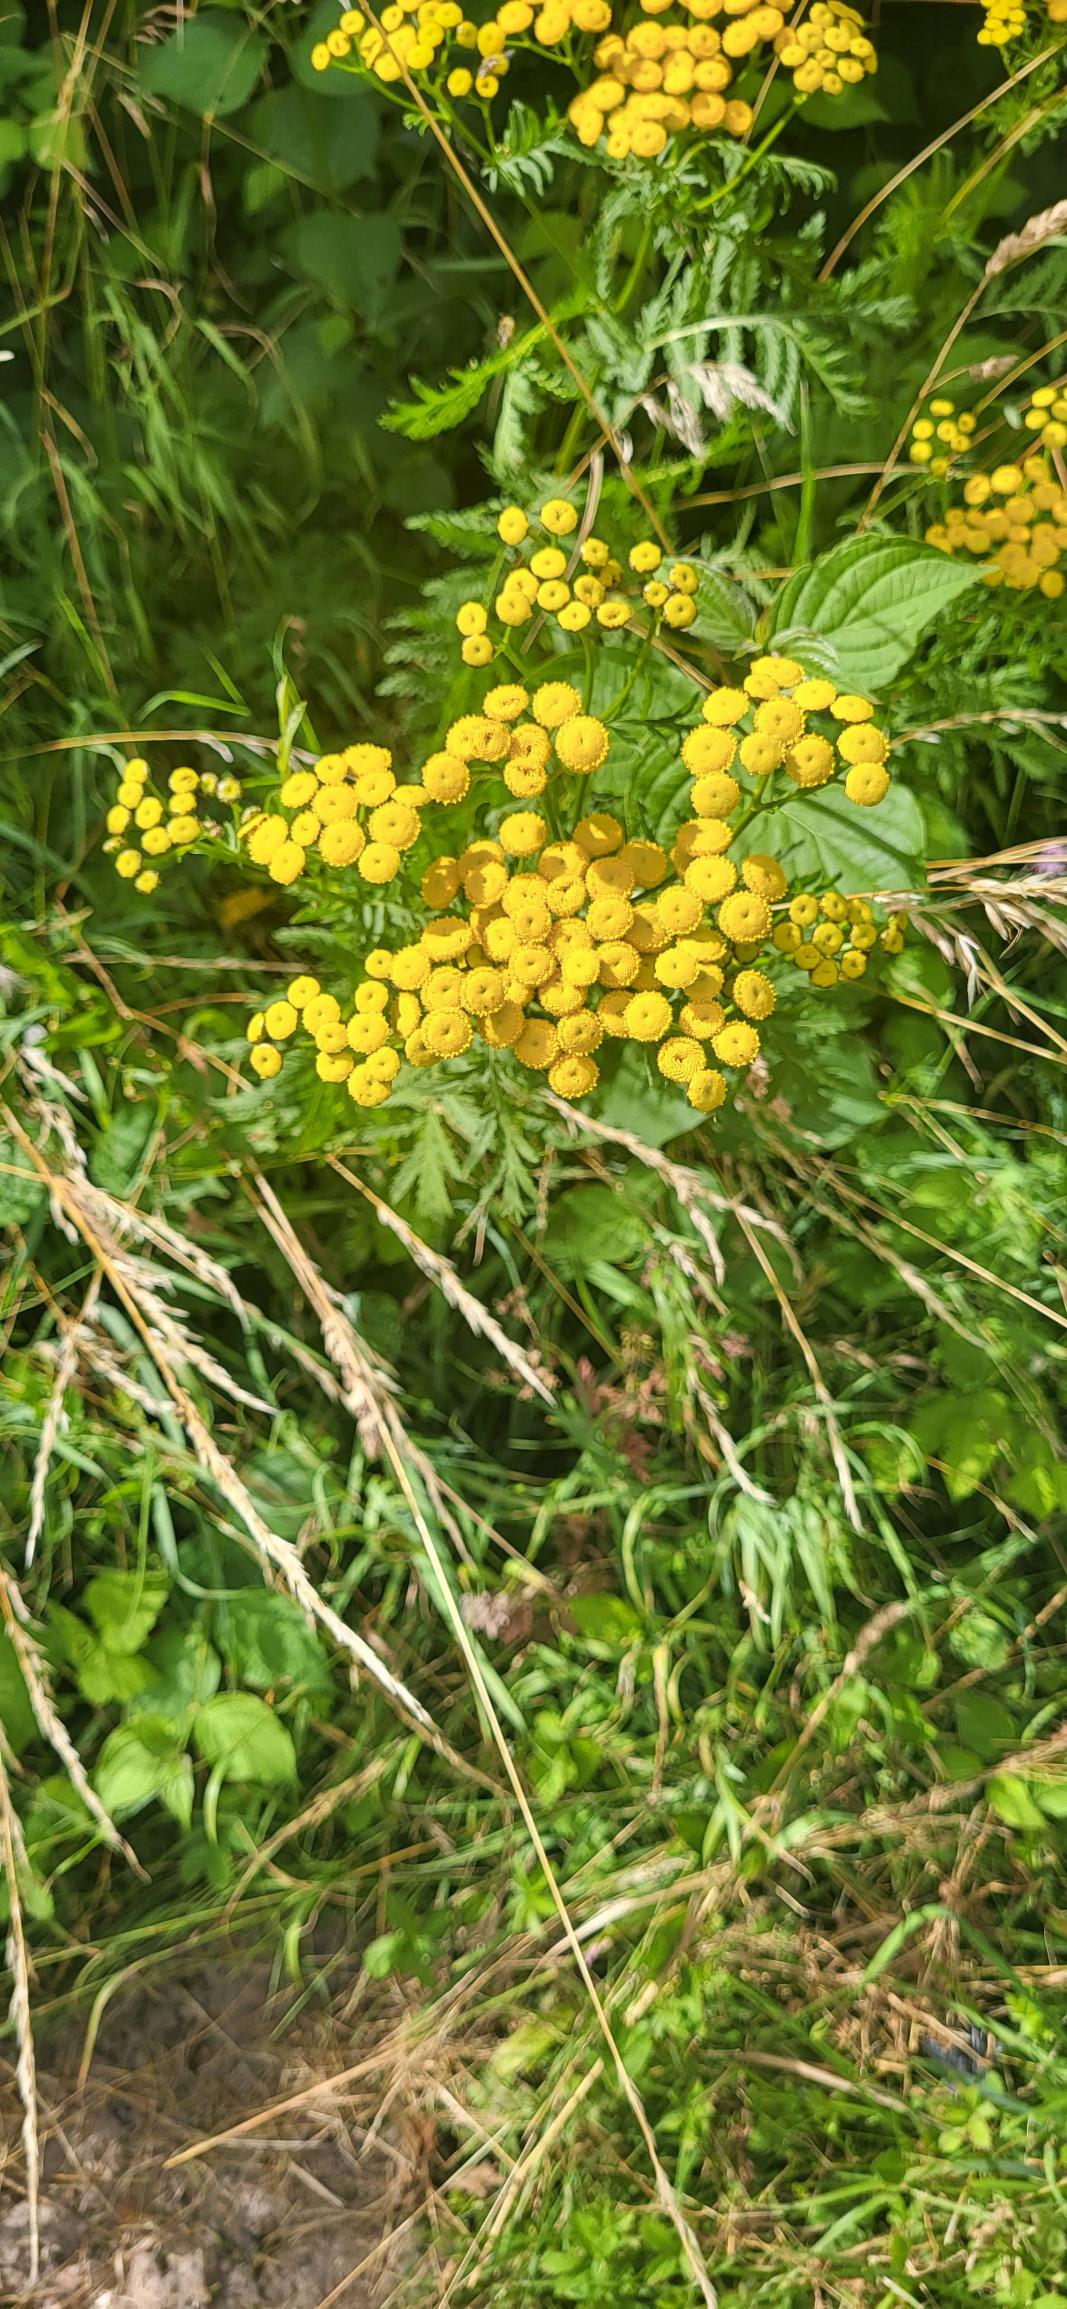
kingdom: Plantae
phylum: Tracheophyta
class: Magnoliopsida
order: Asterales
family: Asteraceae
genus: Tanacetum
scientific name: Tanacetum vulgare
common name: Rejnfan
